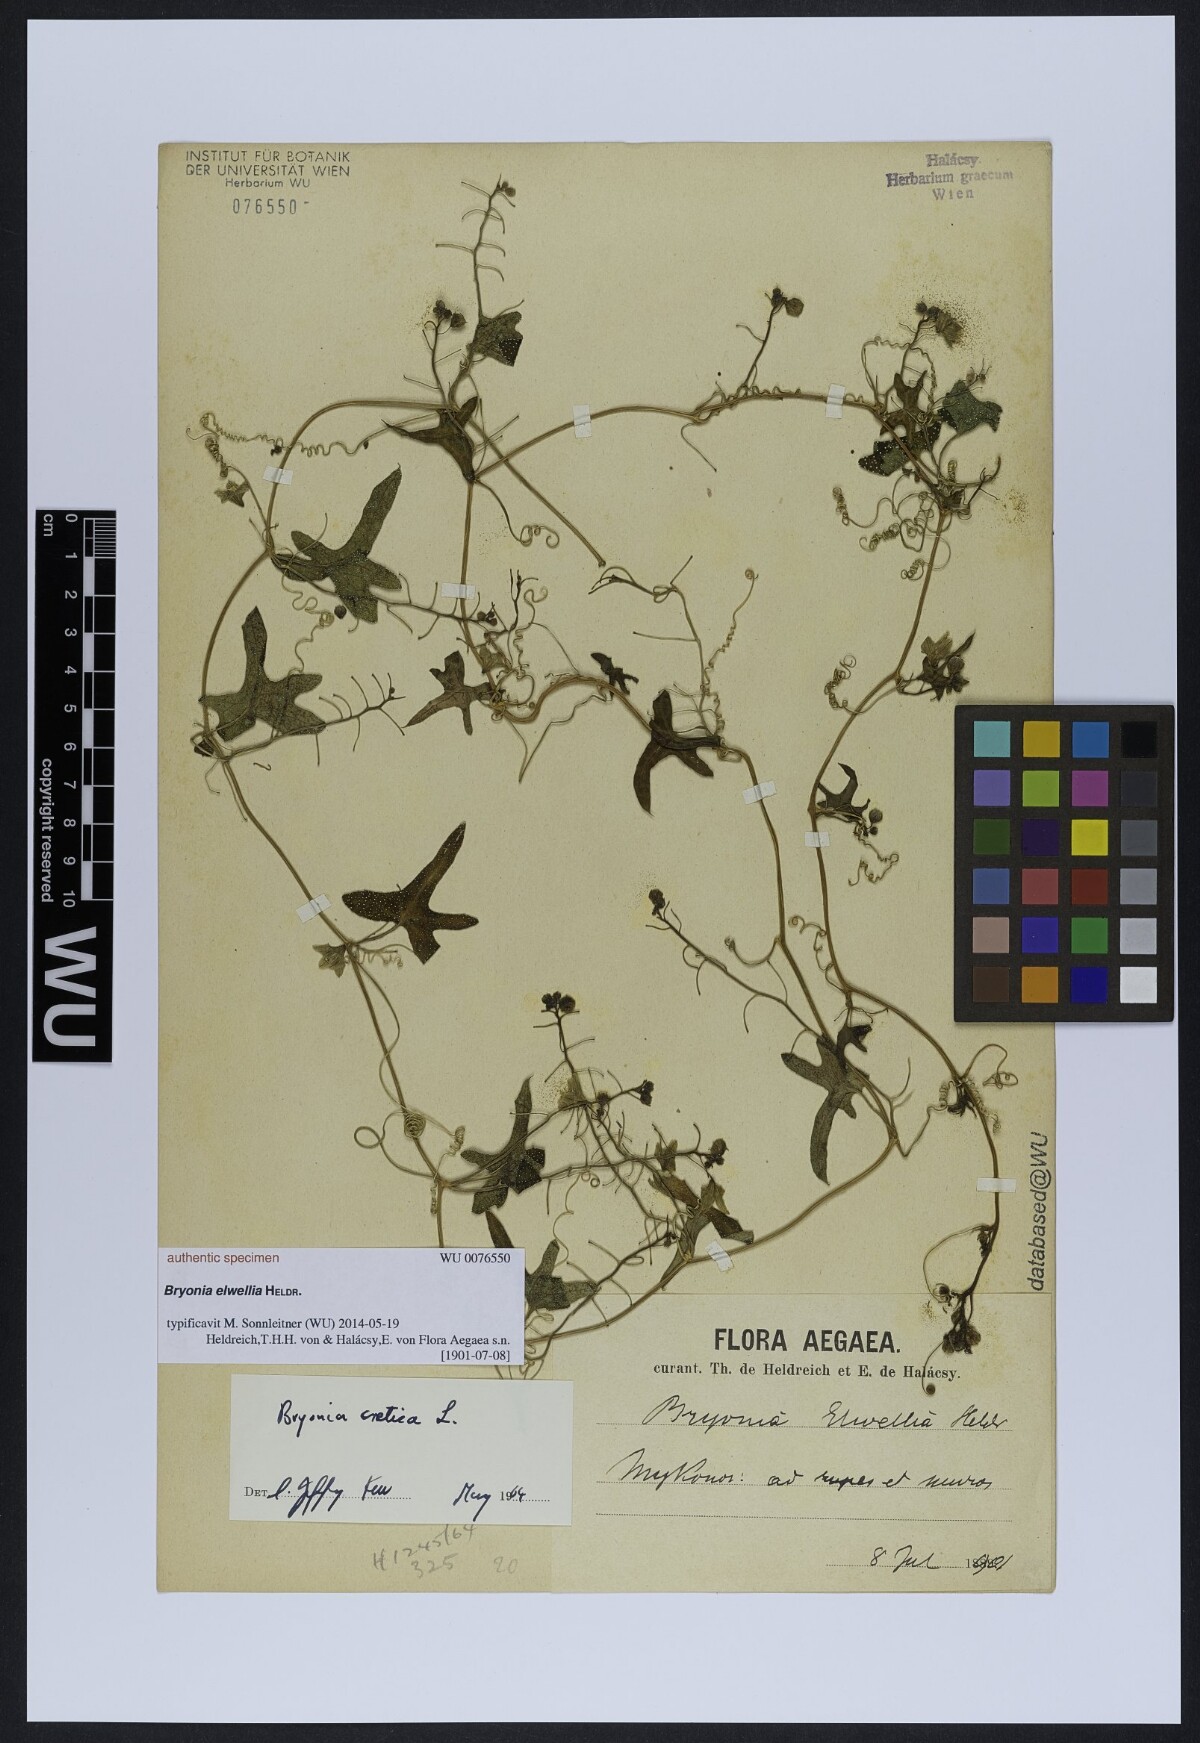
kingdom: Plantae
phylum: Tracheophyta
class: Magnoliopsida
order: Cucurbitales
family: Cucurbitaceae
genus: Bryonia
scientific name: Bryonia
